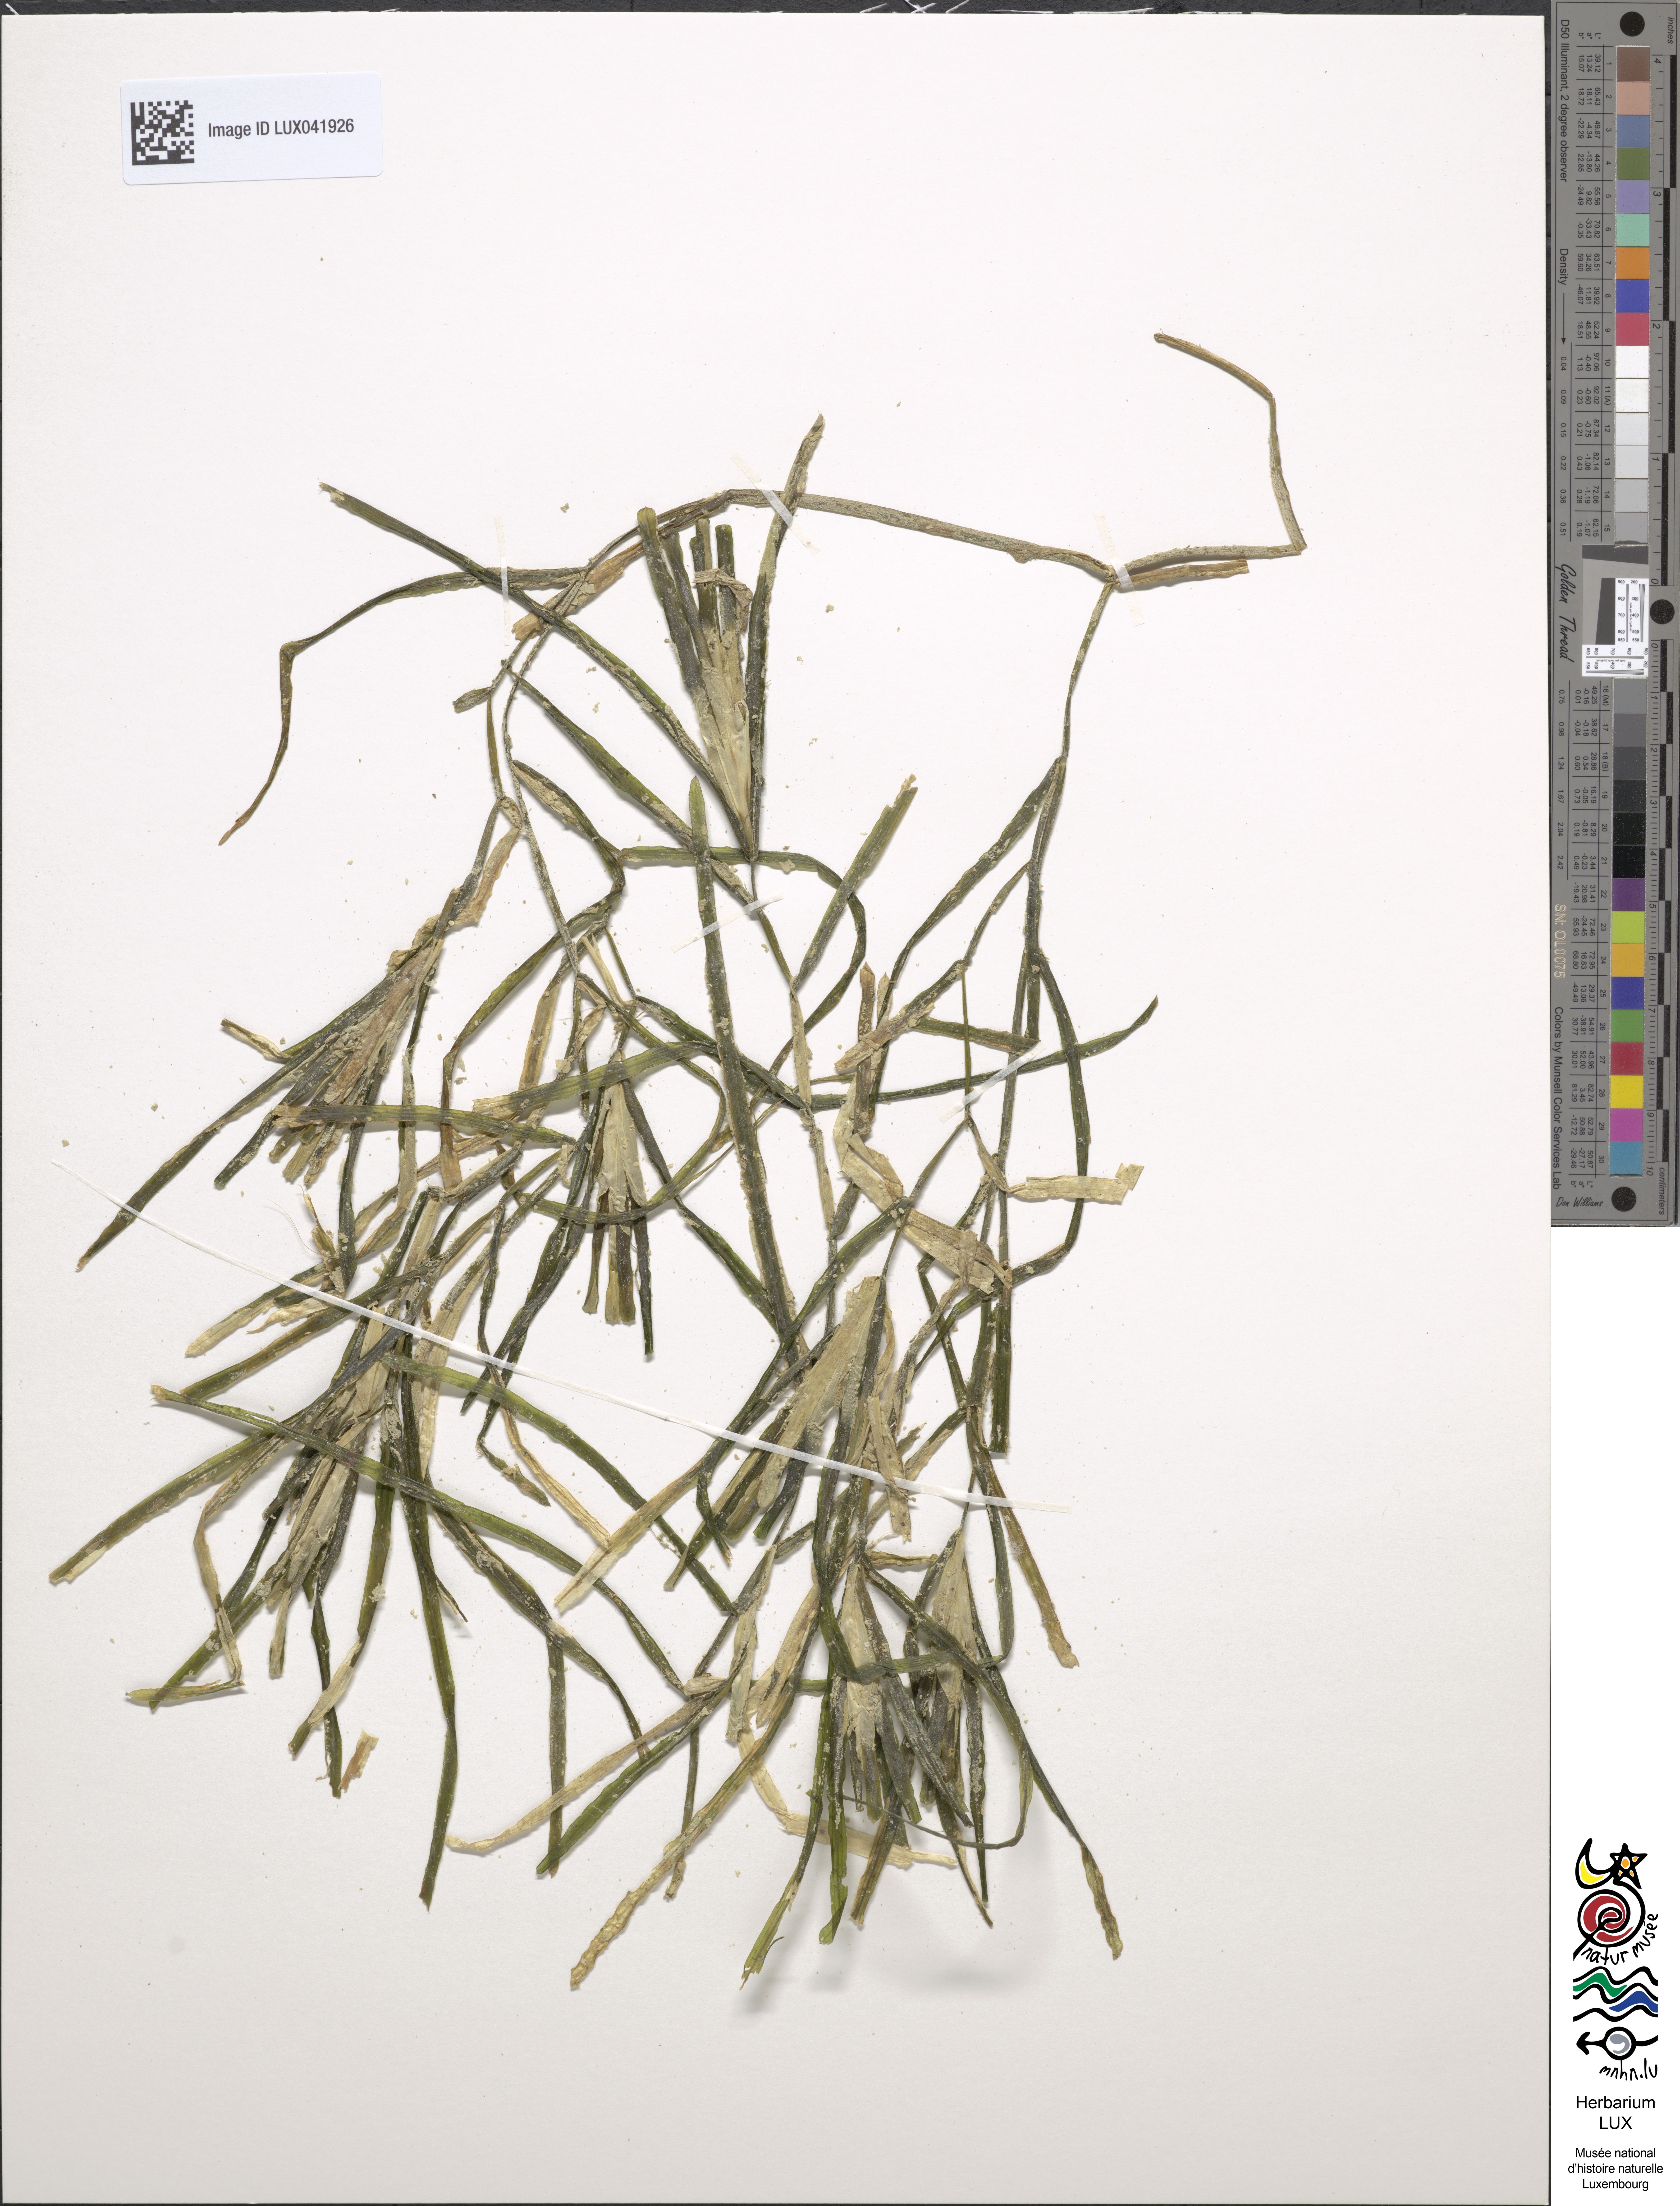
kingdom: Plantae
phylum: Tracheophyta
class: Liliopsida
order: Alismatales
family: Potamogetonaceae
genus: Potamogeton
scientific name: Potamogeton compressus
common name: Grass-wrack pondweed
